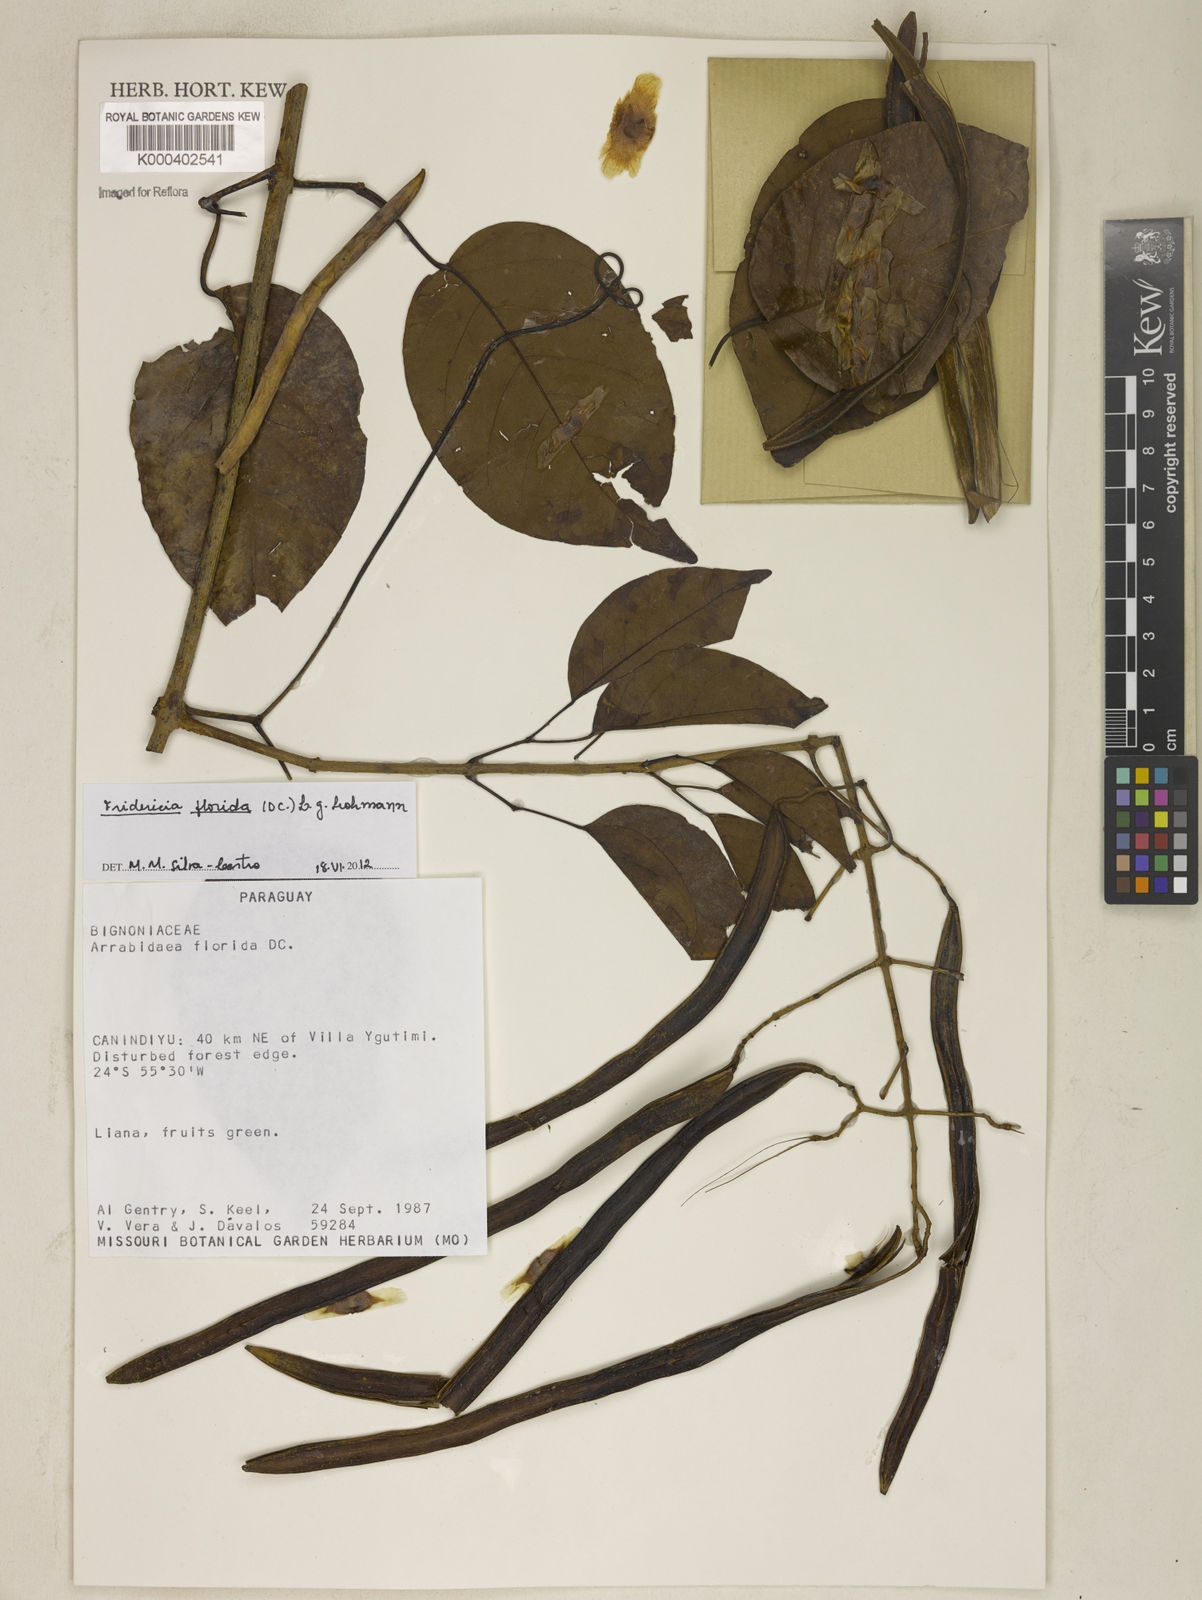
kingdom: Plantae
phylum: Tracheophyta
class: Magnoliopsida
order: Lamiales
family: Bignoniaceae
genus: Fridericia
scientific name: Fridericia florida
